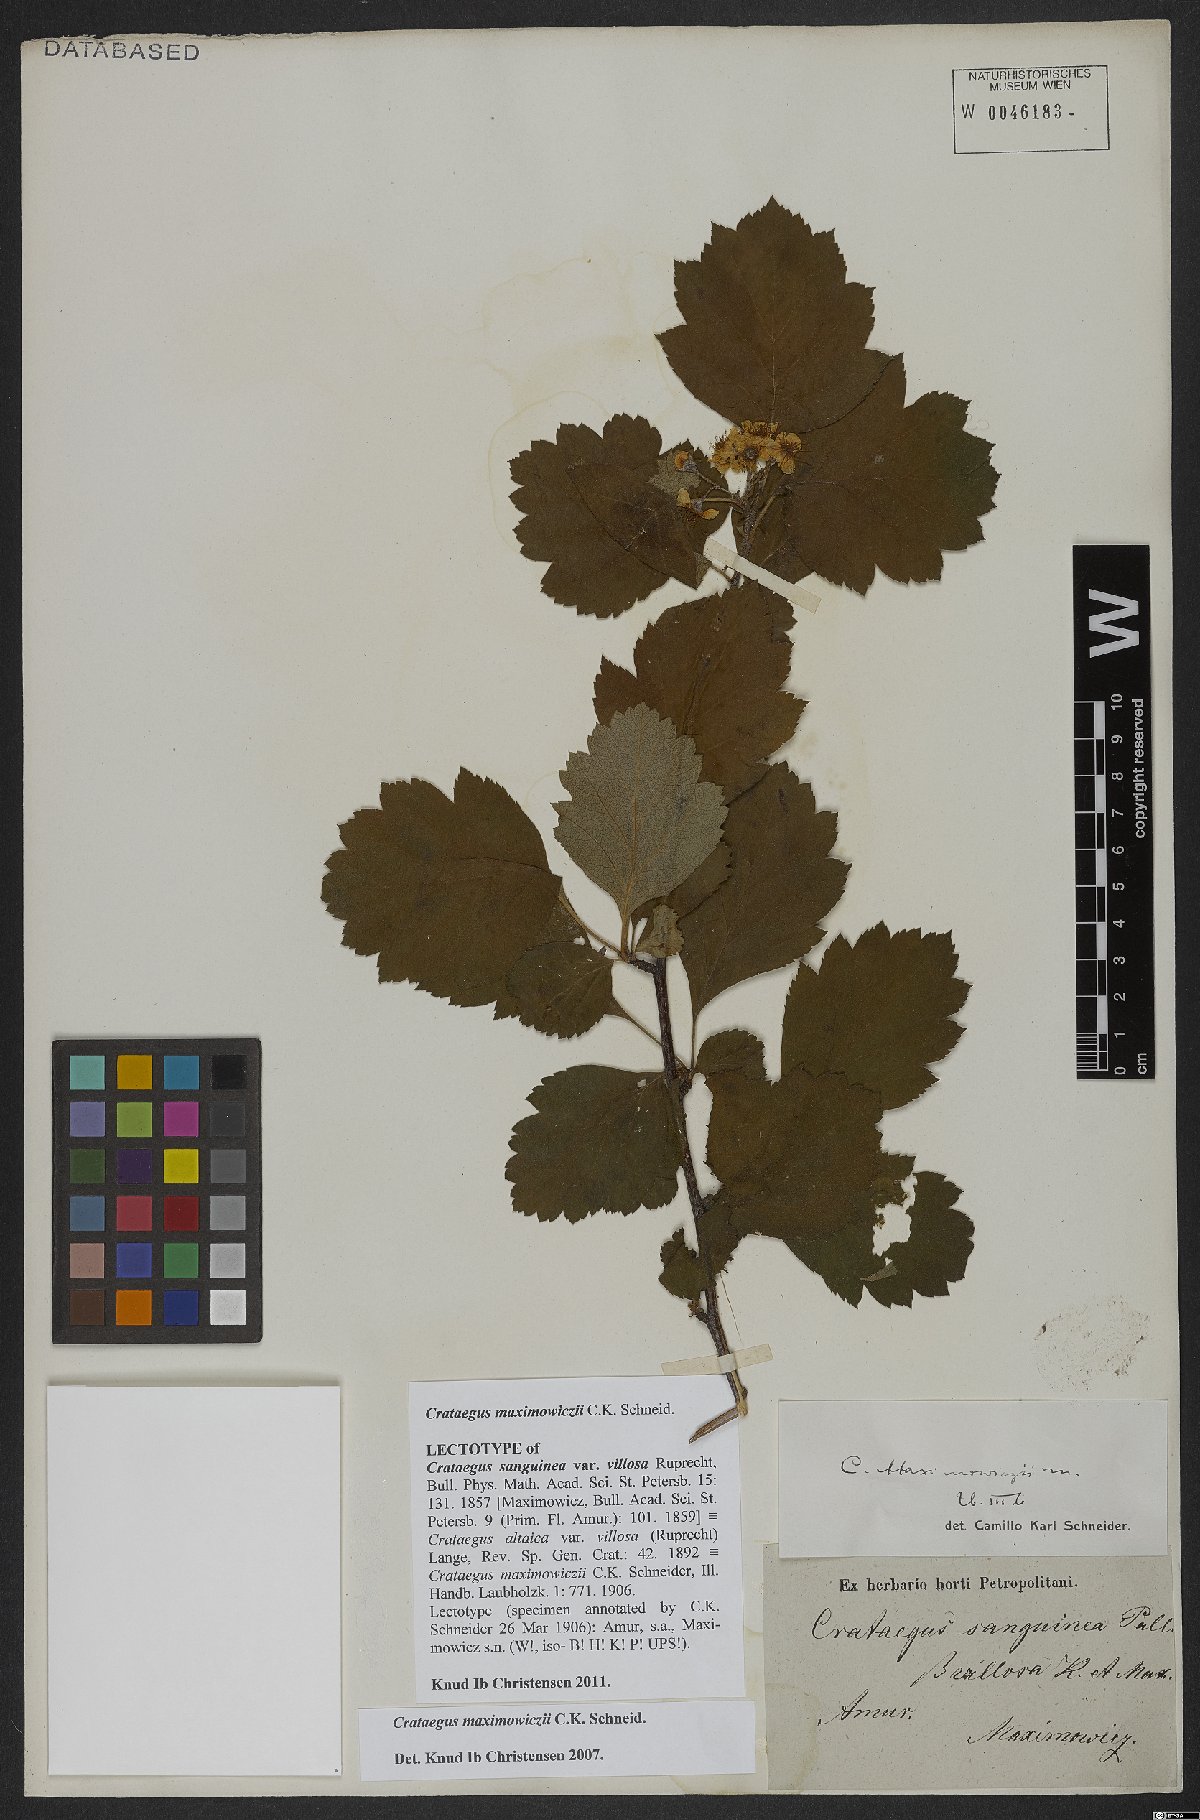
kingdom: Plantae
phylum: Tracheophyta
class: Magnoliopsida
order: Rosales
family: Rosaceae
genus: Crataegus
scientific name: Crataegus maximowiczii
